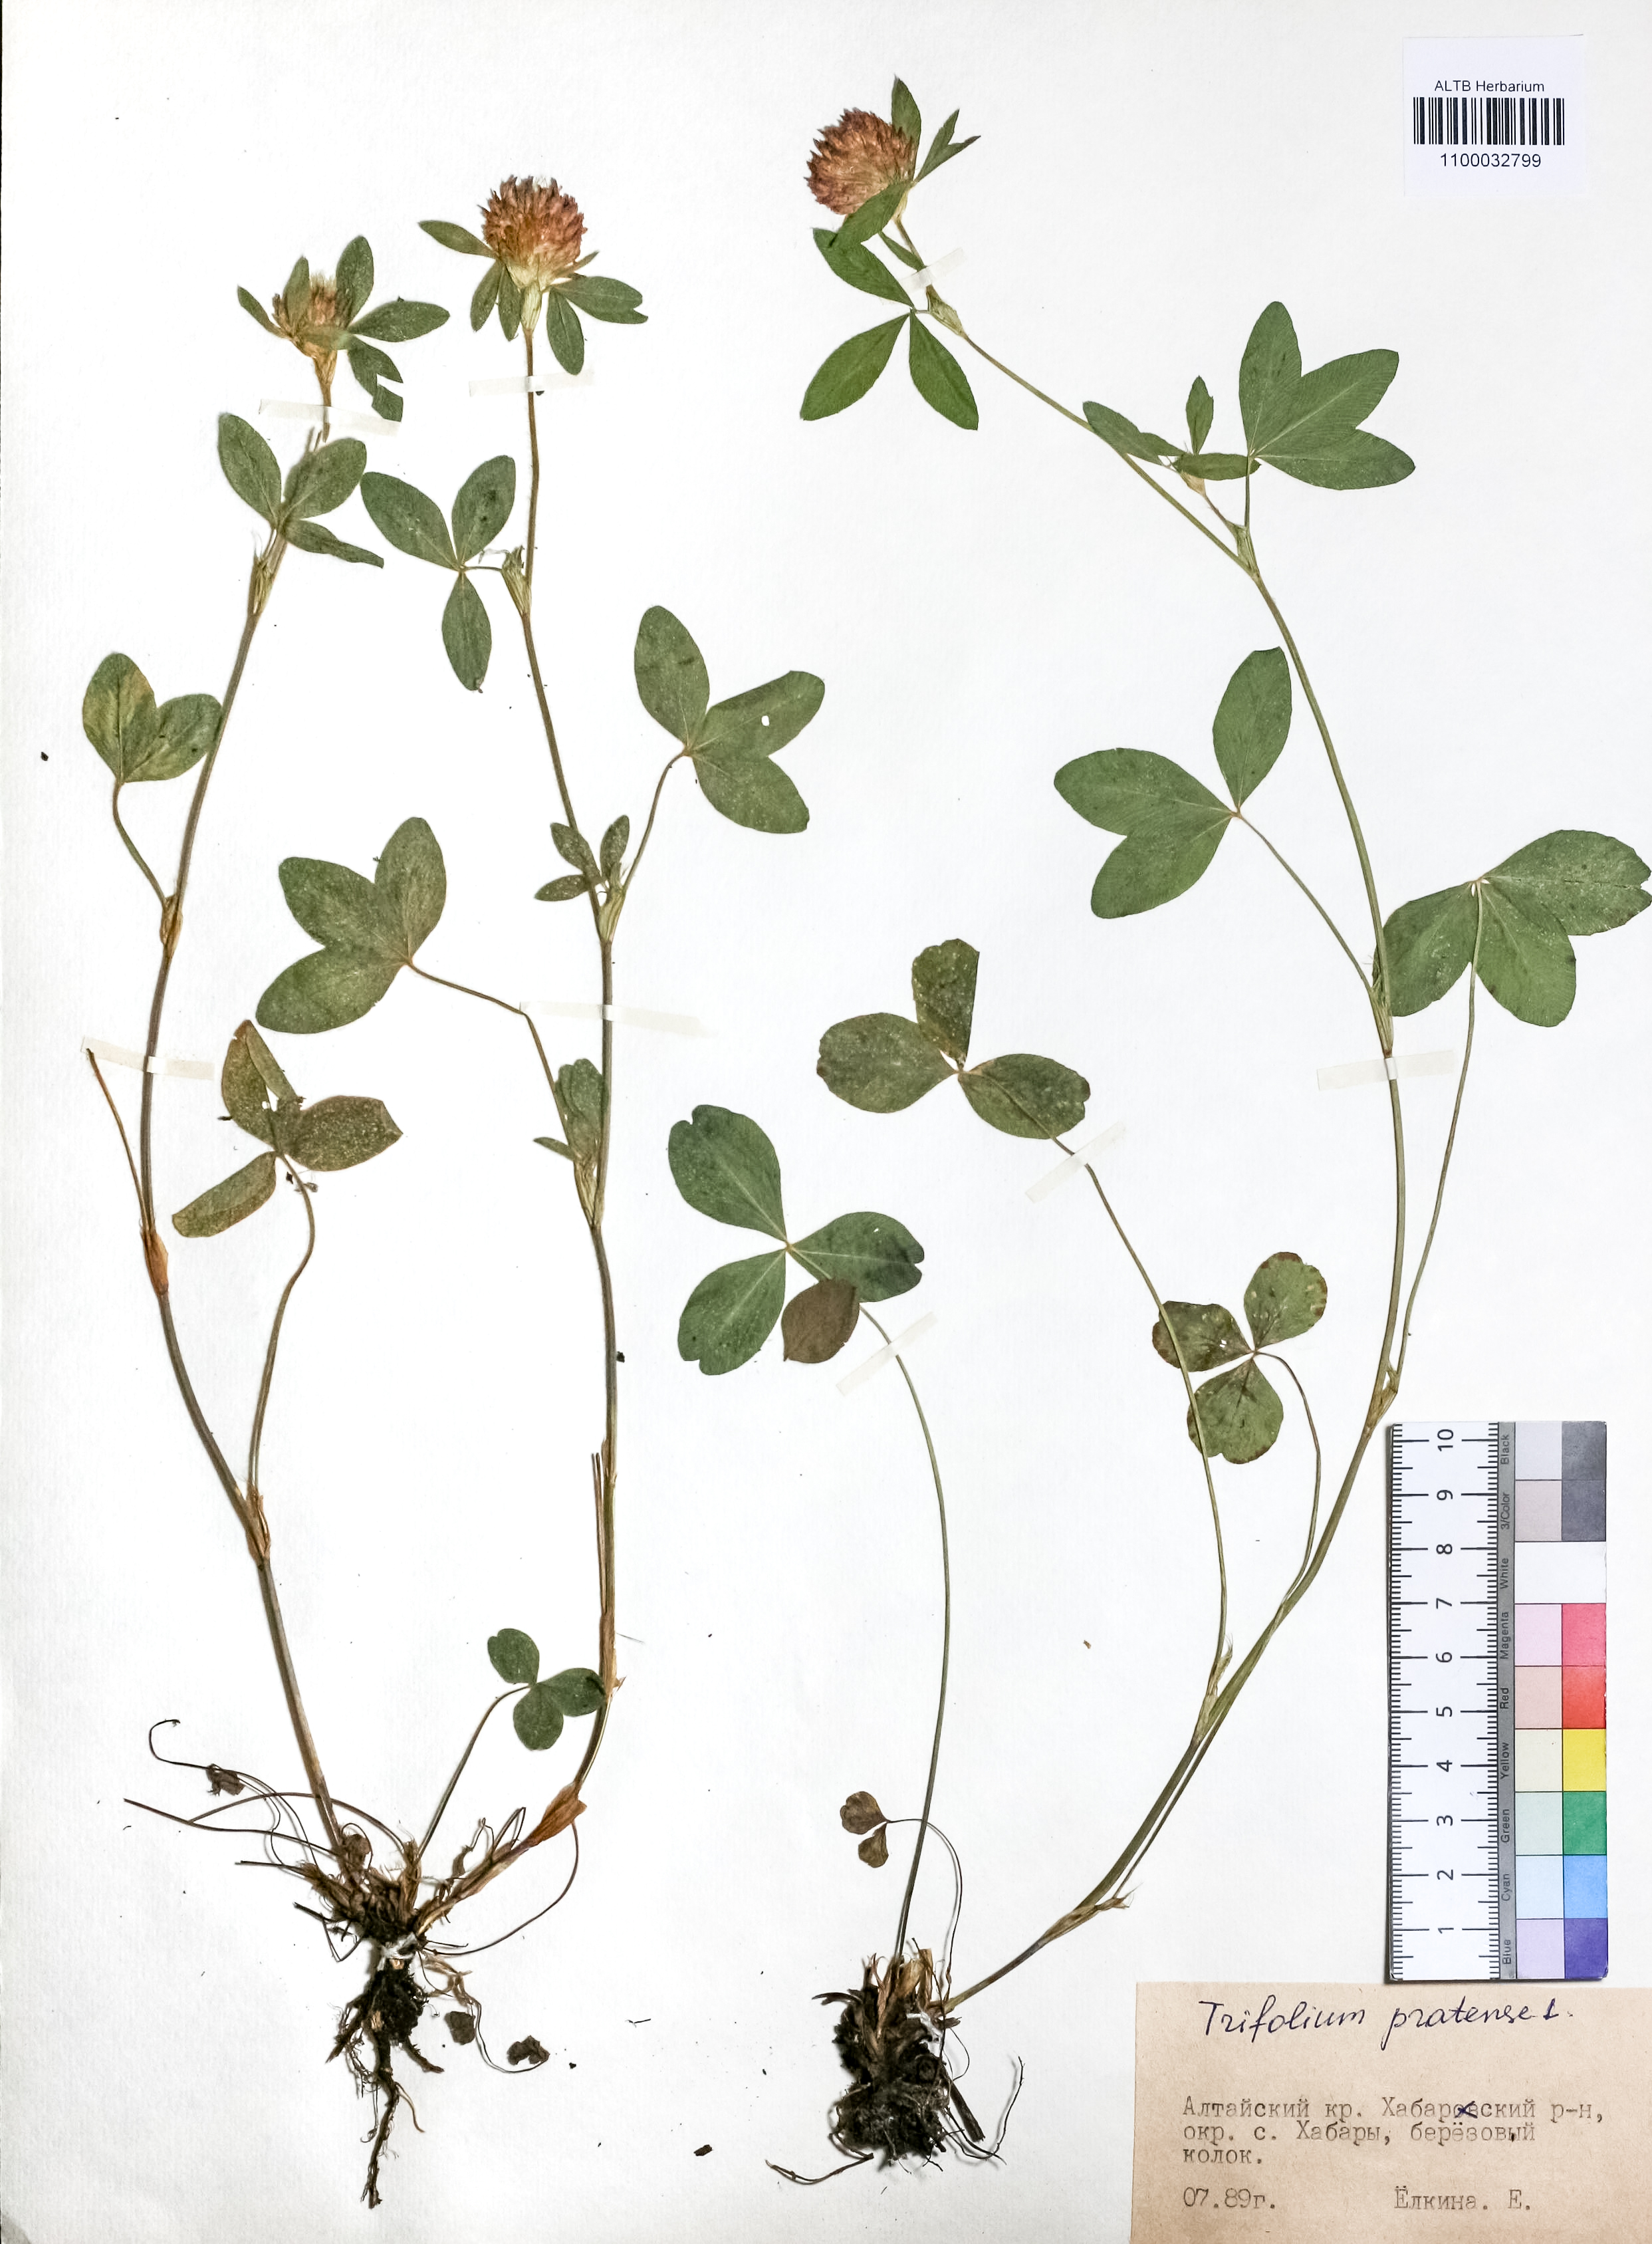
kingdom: Plantae
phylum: Tracheophyta
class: Magnoliopsida
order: Fabales
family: Fabaceae
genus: Trifolium
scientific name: Trifolium pratense
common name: Red clover
